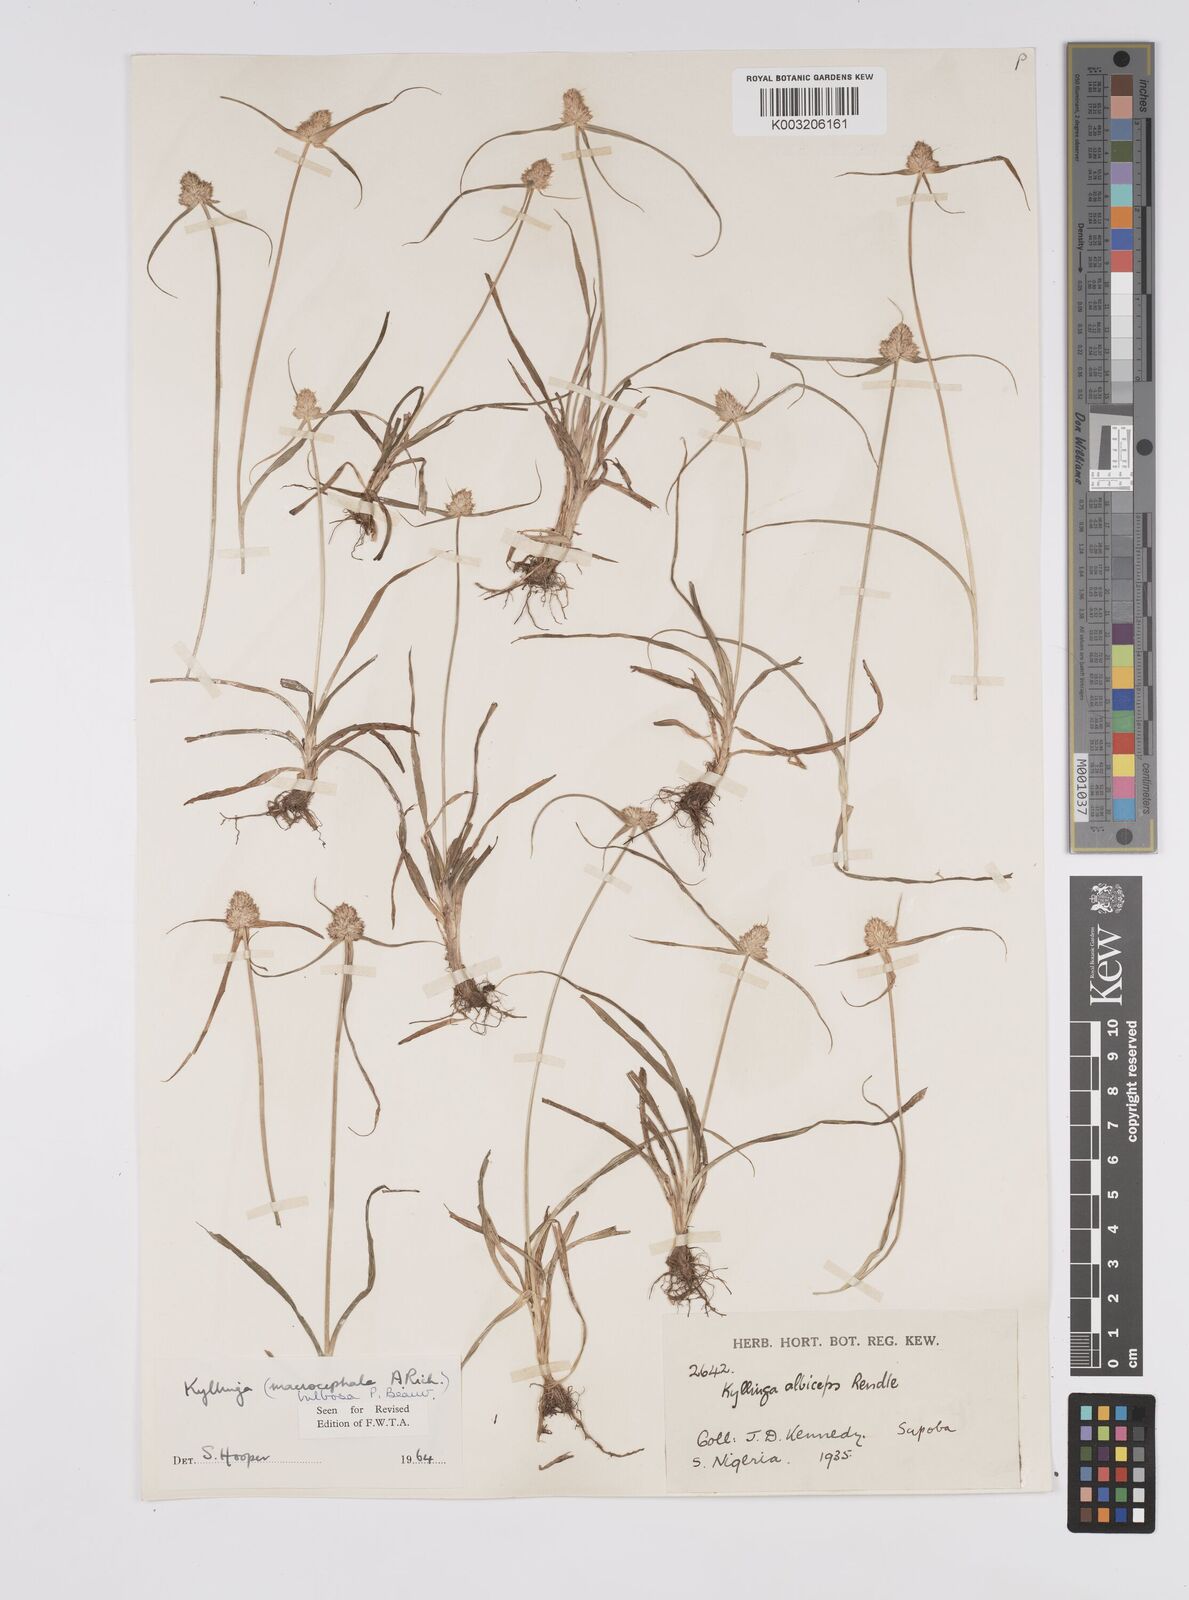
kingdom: Plantae
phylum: Tracheophyta
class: Liliopsida
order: Poales
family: Cyperaceae
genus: Cyperus
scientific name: Cyperus
